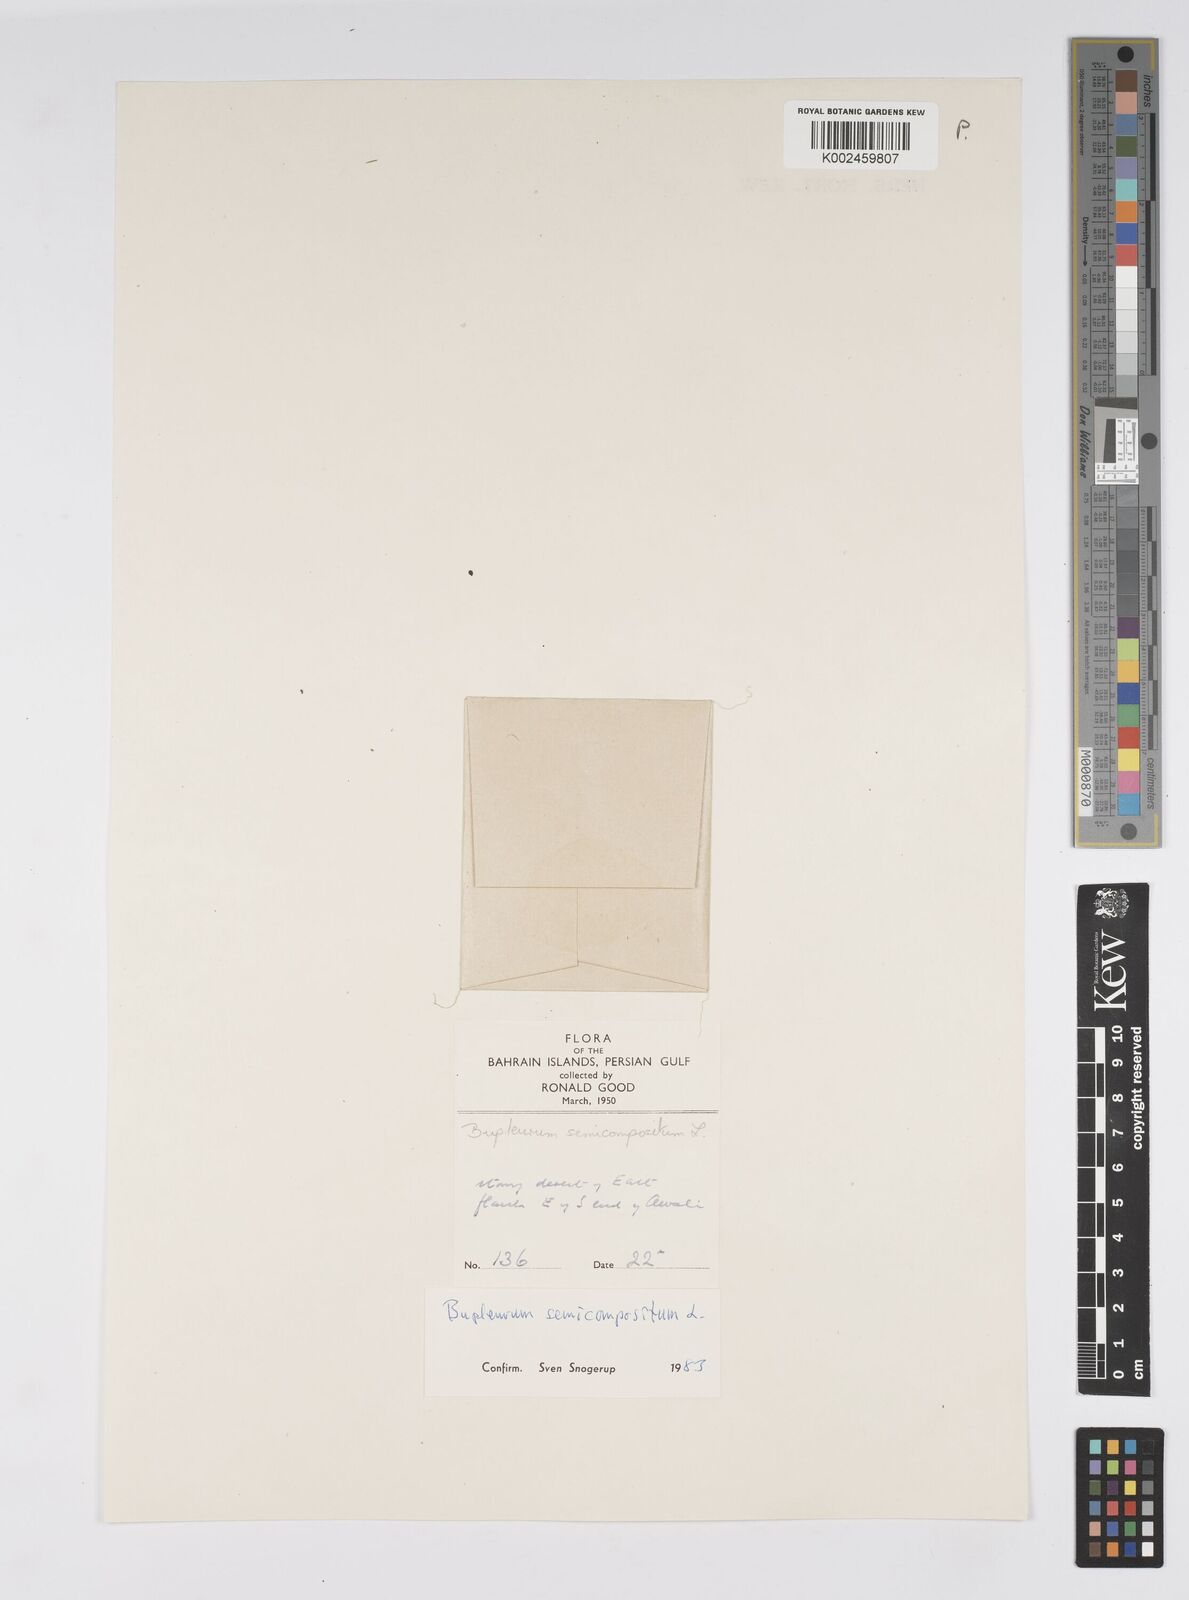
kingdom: Plantae
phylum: Tracheophyta
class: Magnoliopsida
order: Apiales
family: Apiaceae
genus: Bupleurum
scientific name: Bupleurum semicompositum
